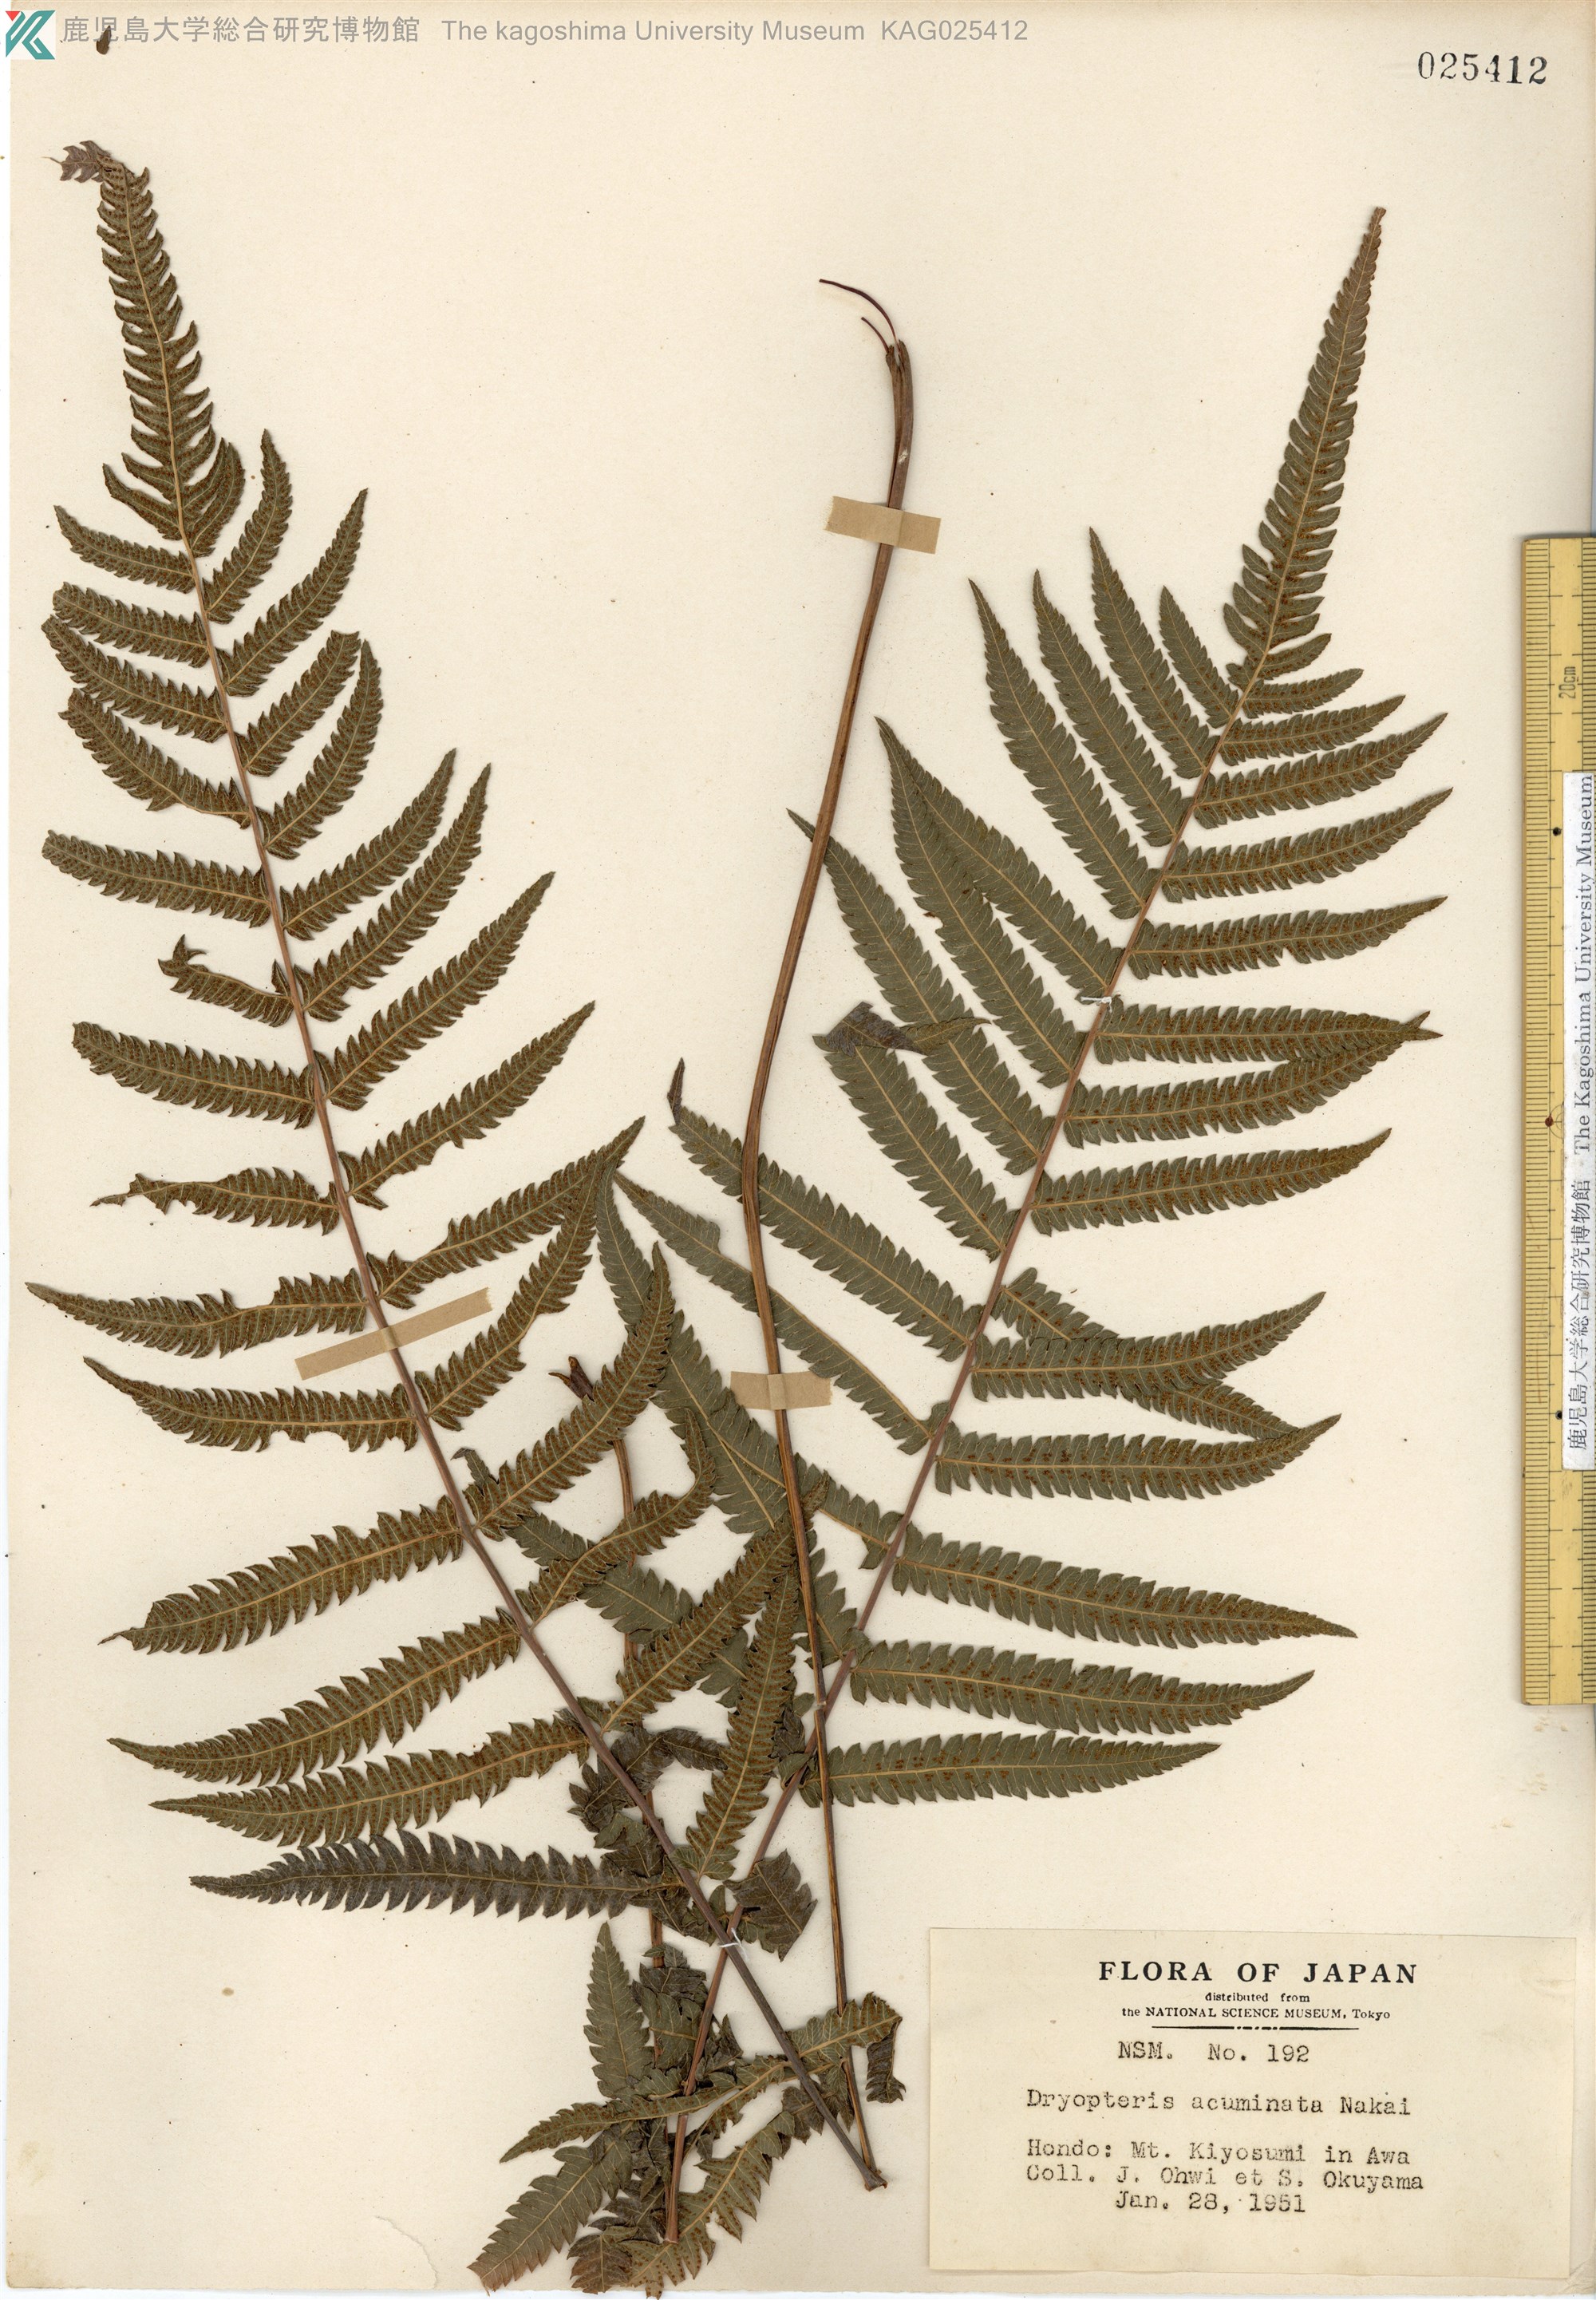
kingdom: Plantae
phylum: Tracheophyta
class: Polypodiopsida
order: Polypodiales
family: Thelypteridaceae
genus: Christella
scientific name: Christella acuminata
